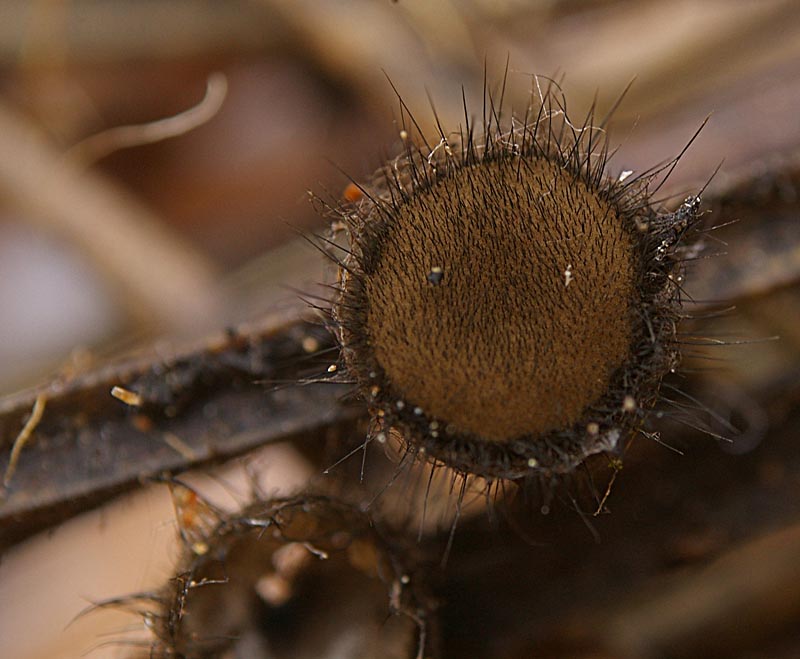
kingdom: Fungi
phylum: Ascomycota
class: Pezizomycetes
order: Pezizales
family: Chorioactidaceae
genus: Desmazierella
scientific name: Desmazierella acicola
